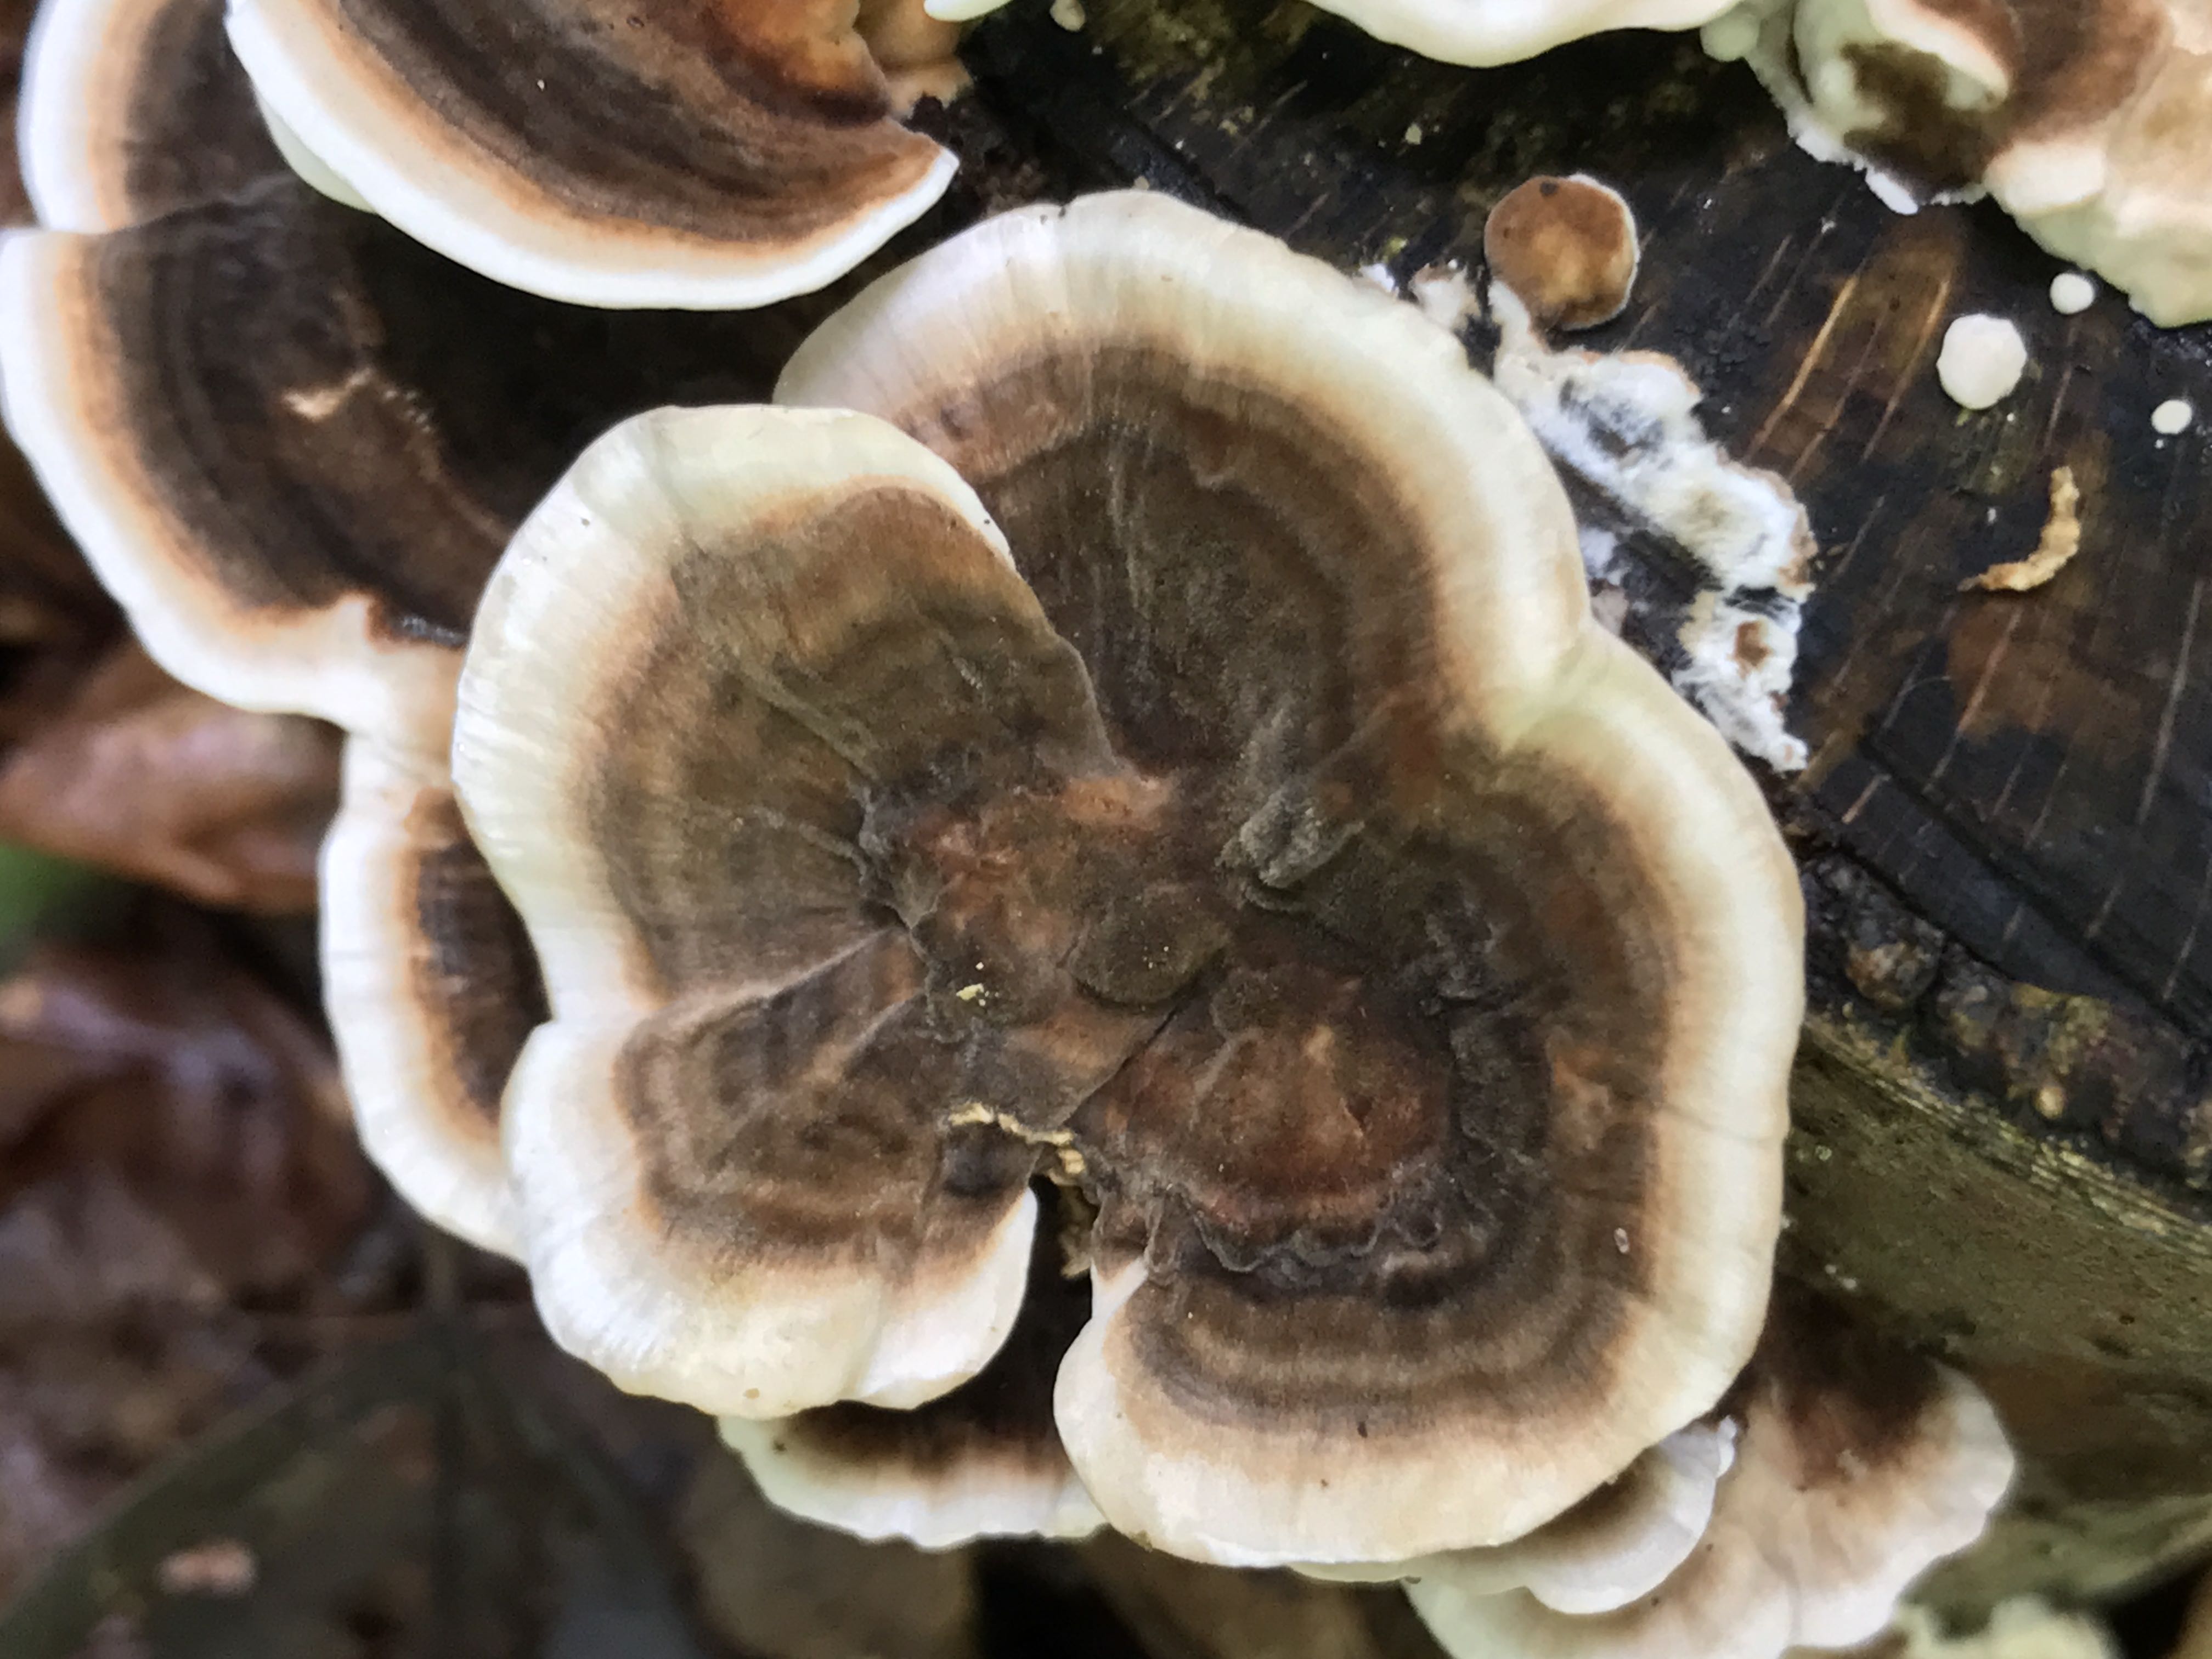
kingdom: Fungi
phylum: Basidiomycota
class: Agaricomycetes
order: Polyporales
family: Polyporaceae
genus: Trametes
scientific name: Trametes versicolor
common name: broget læderporesvamp
